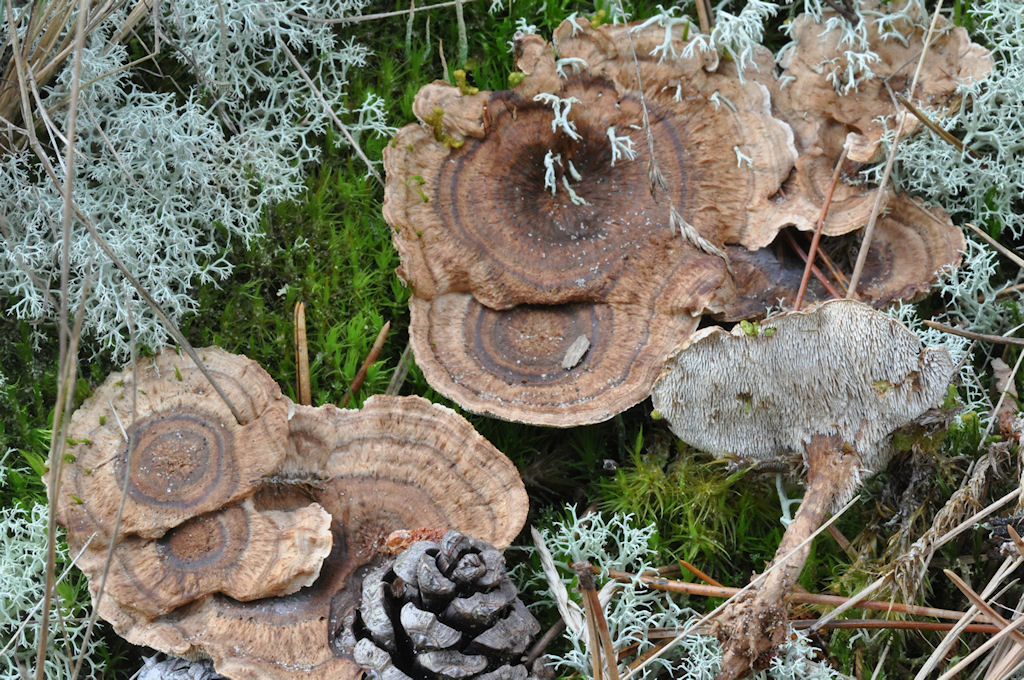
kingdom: Fungi
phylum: Basidiomycota
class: Agaricomycetes
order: Thelephorales
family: Thelephoraceae
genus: Phellodon
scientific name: Phellodon tomentosus
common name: tragtformet duftpigsvamp
